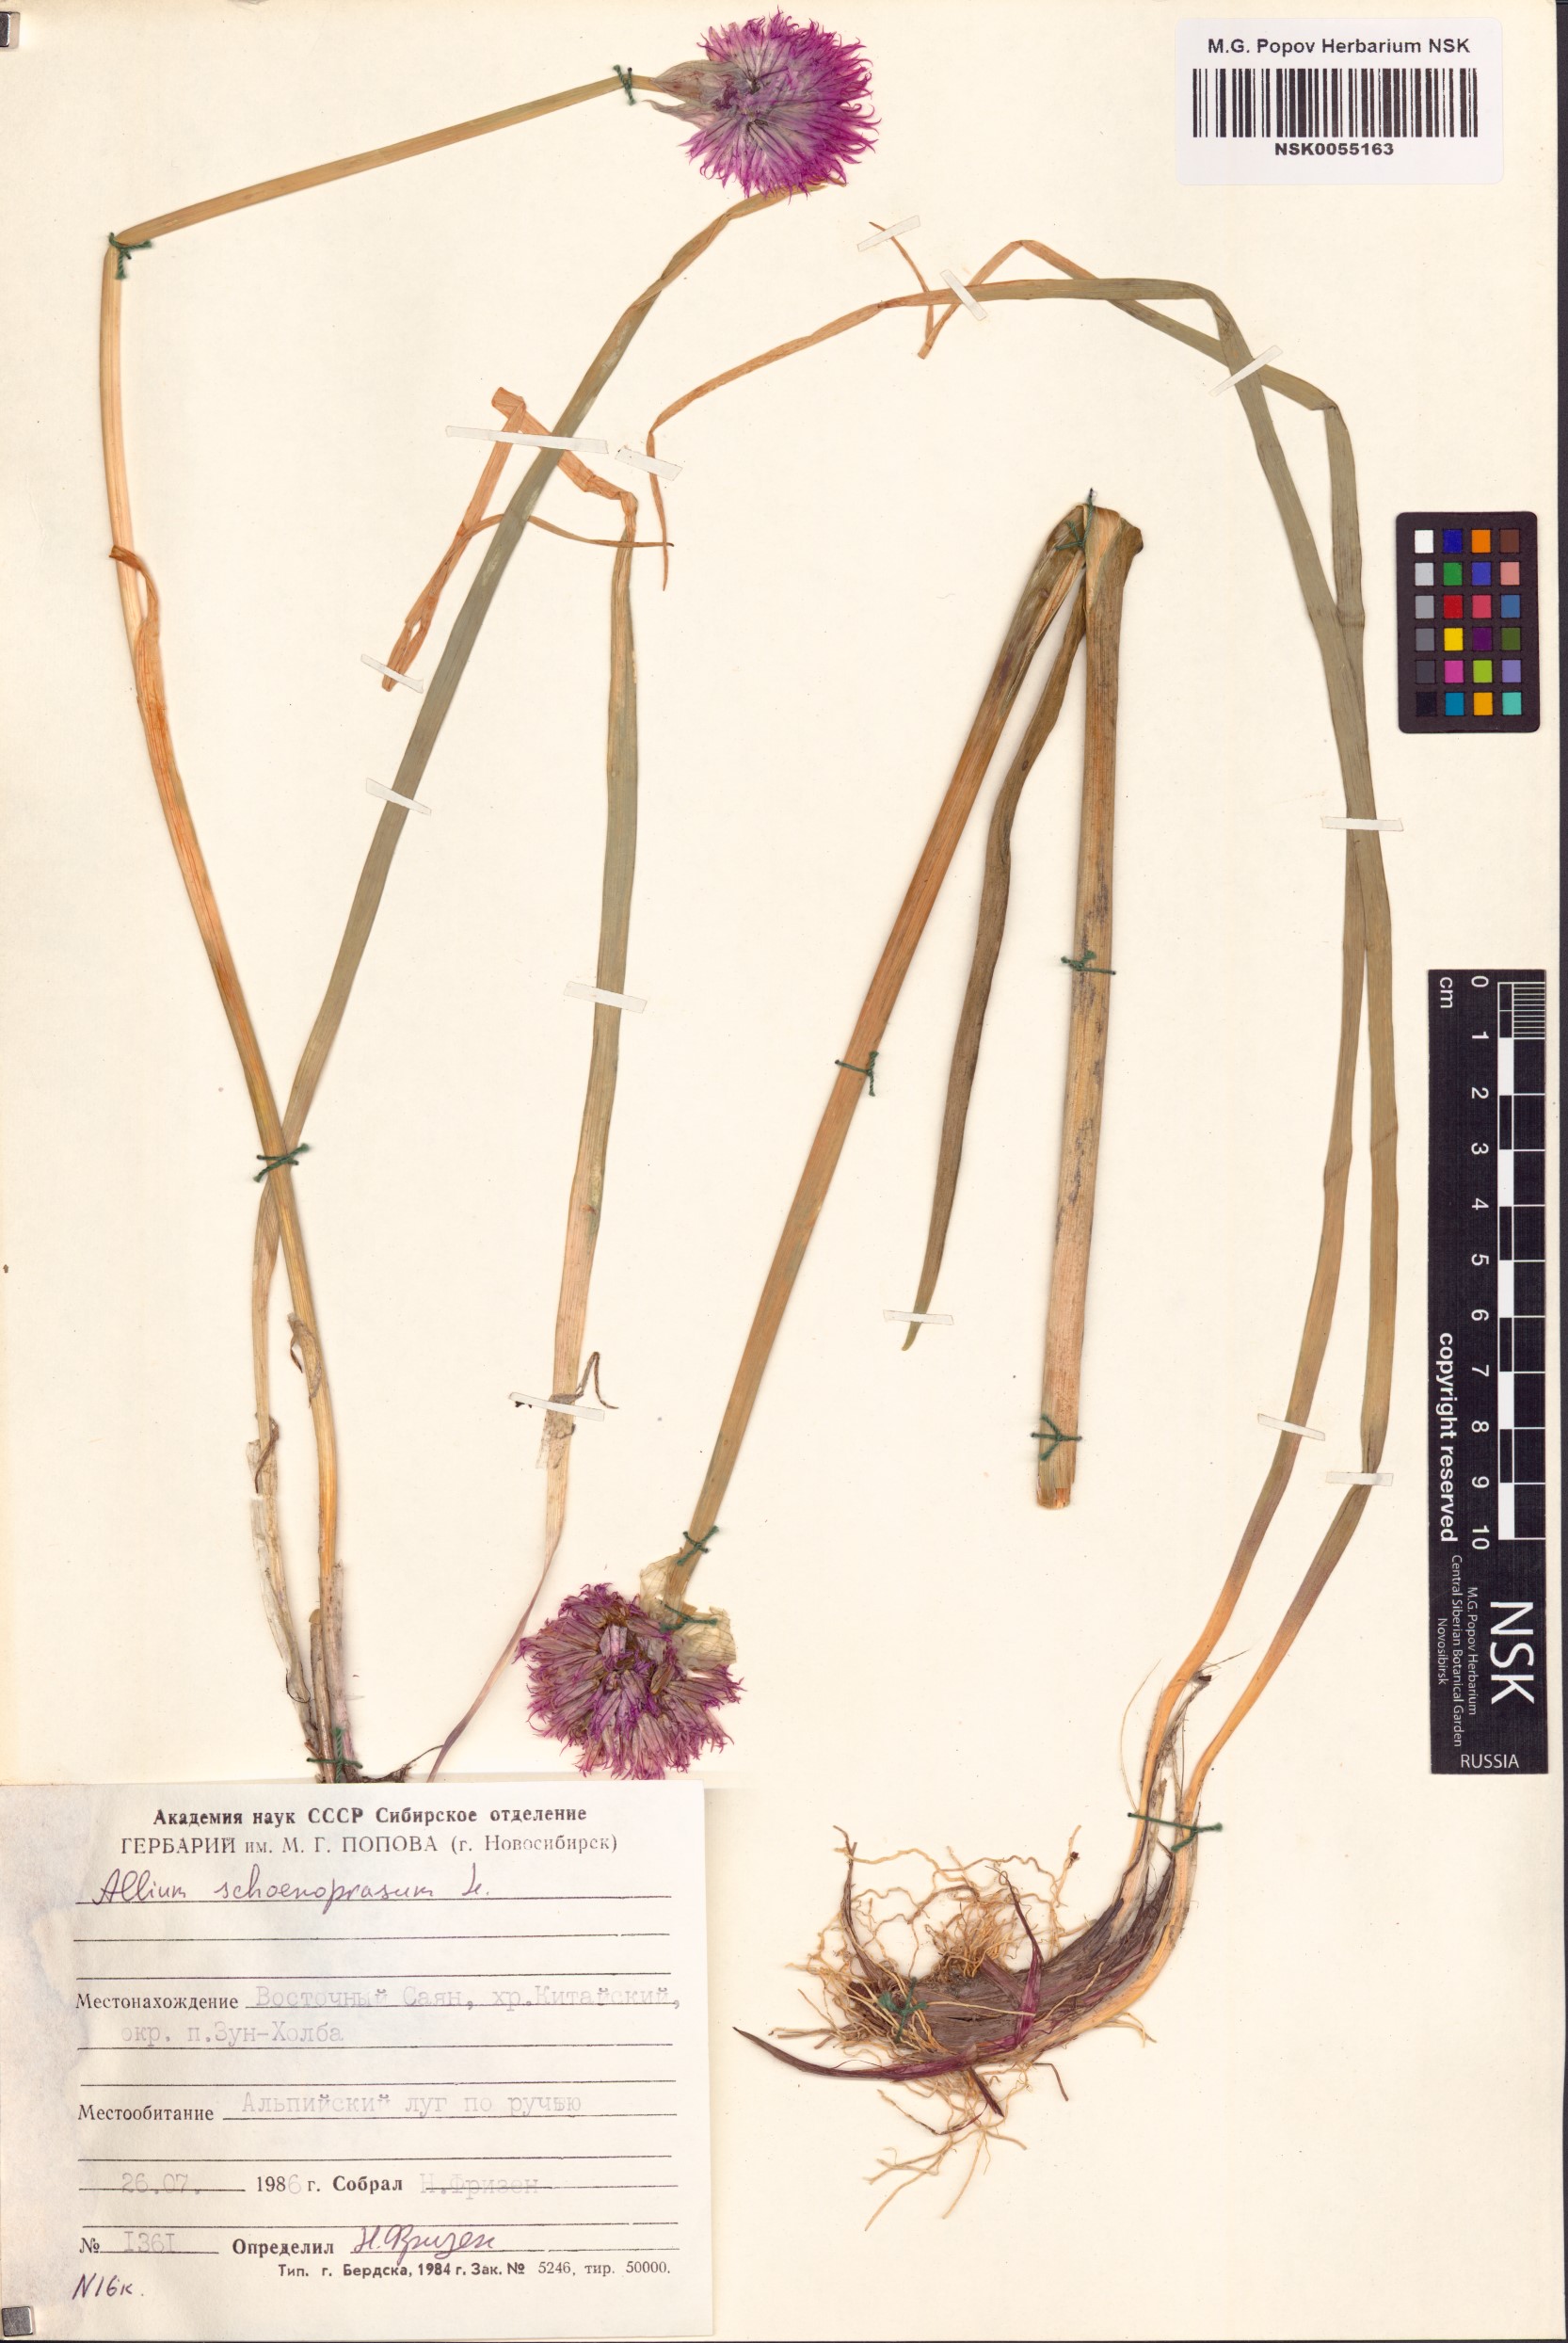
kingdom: Plantae
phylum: Tracheophyta
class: Liliopsida
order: Asparagales
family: Amaryllidaceae
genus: Allium
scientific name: Allium schoenoprasum
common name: Chives
